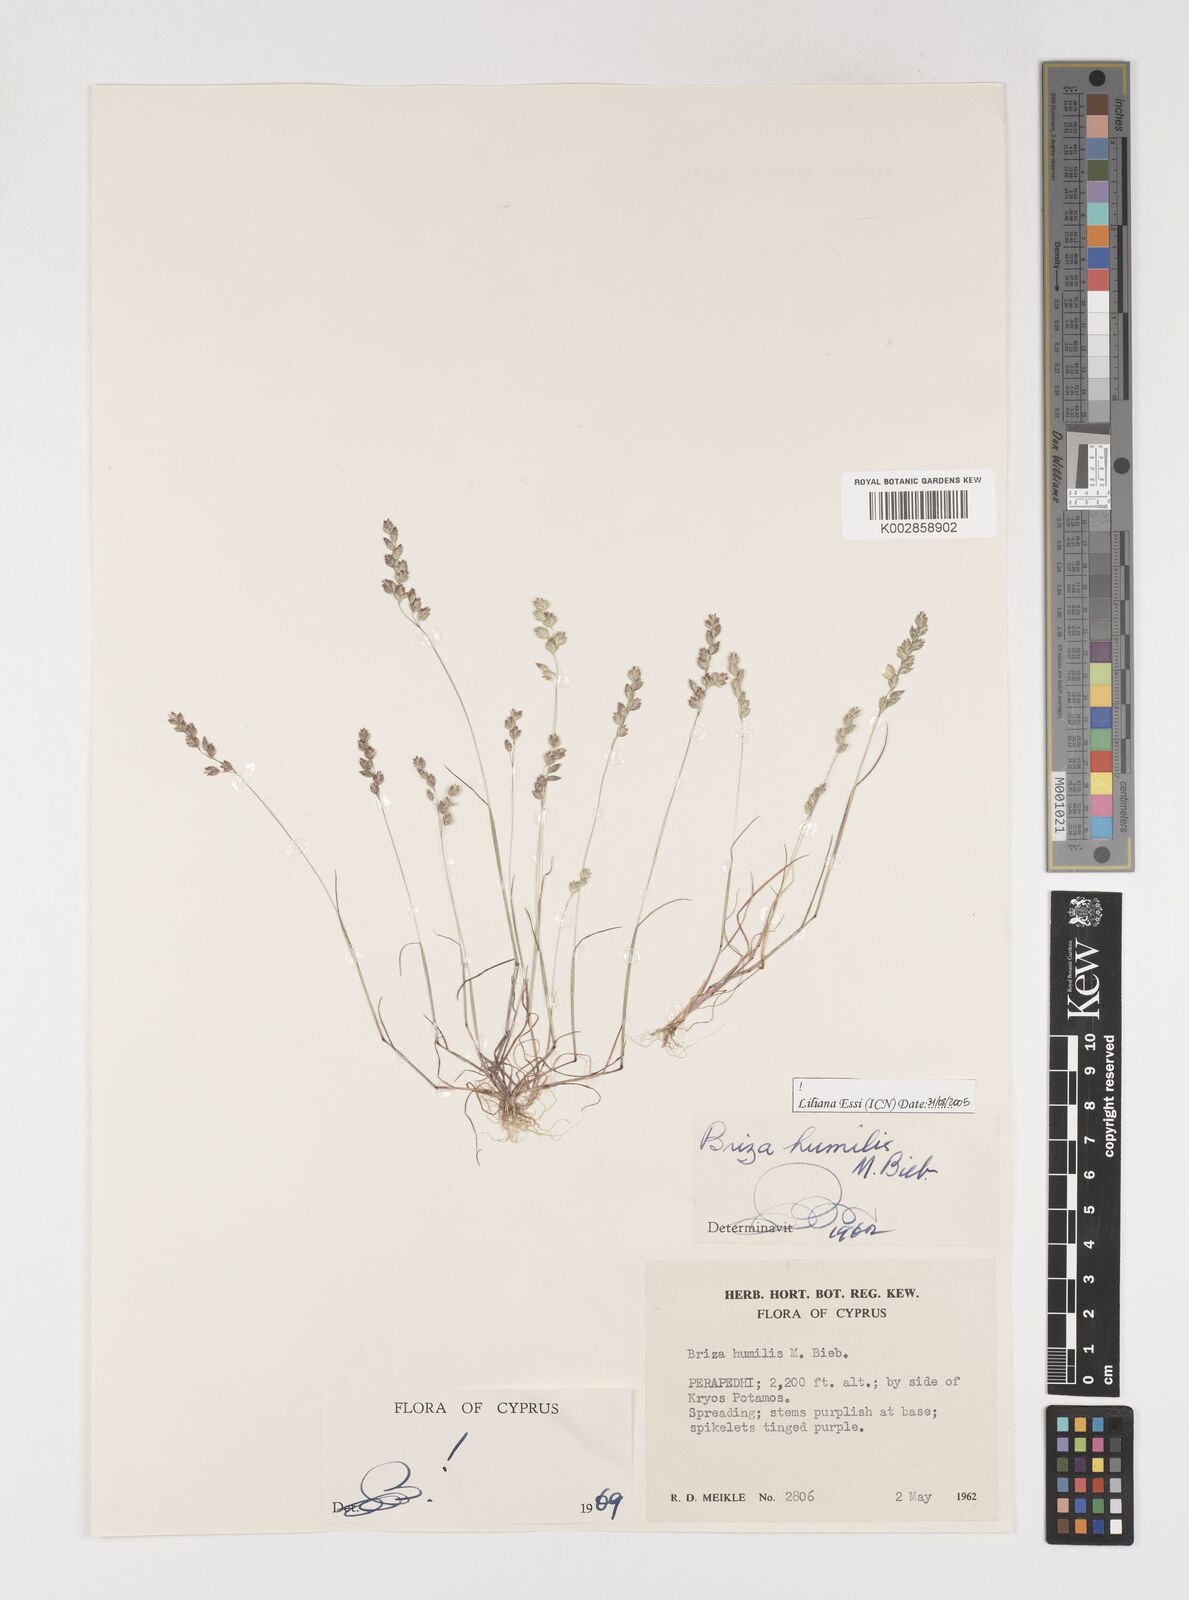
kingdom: Plantae
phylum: Tracheophyta
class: Liliopsida
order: Poales
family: Poaceae
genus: Briza
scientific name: Briza humilis
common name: Spiked quaking grass
